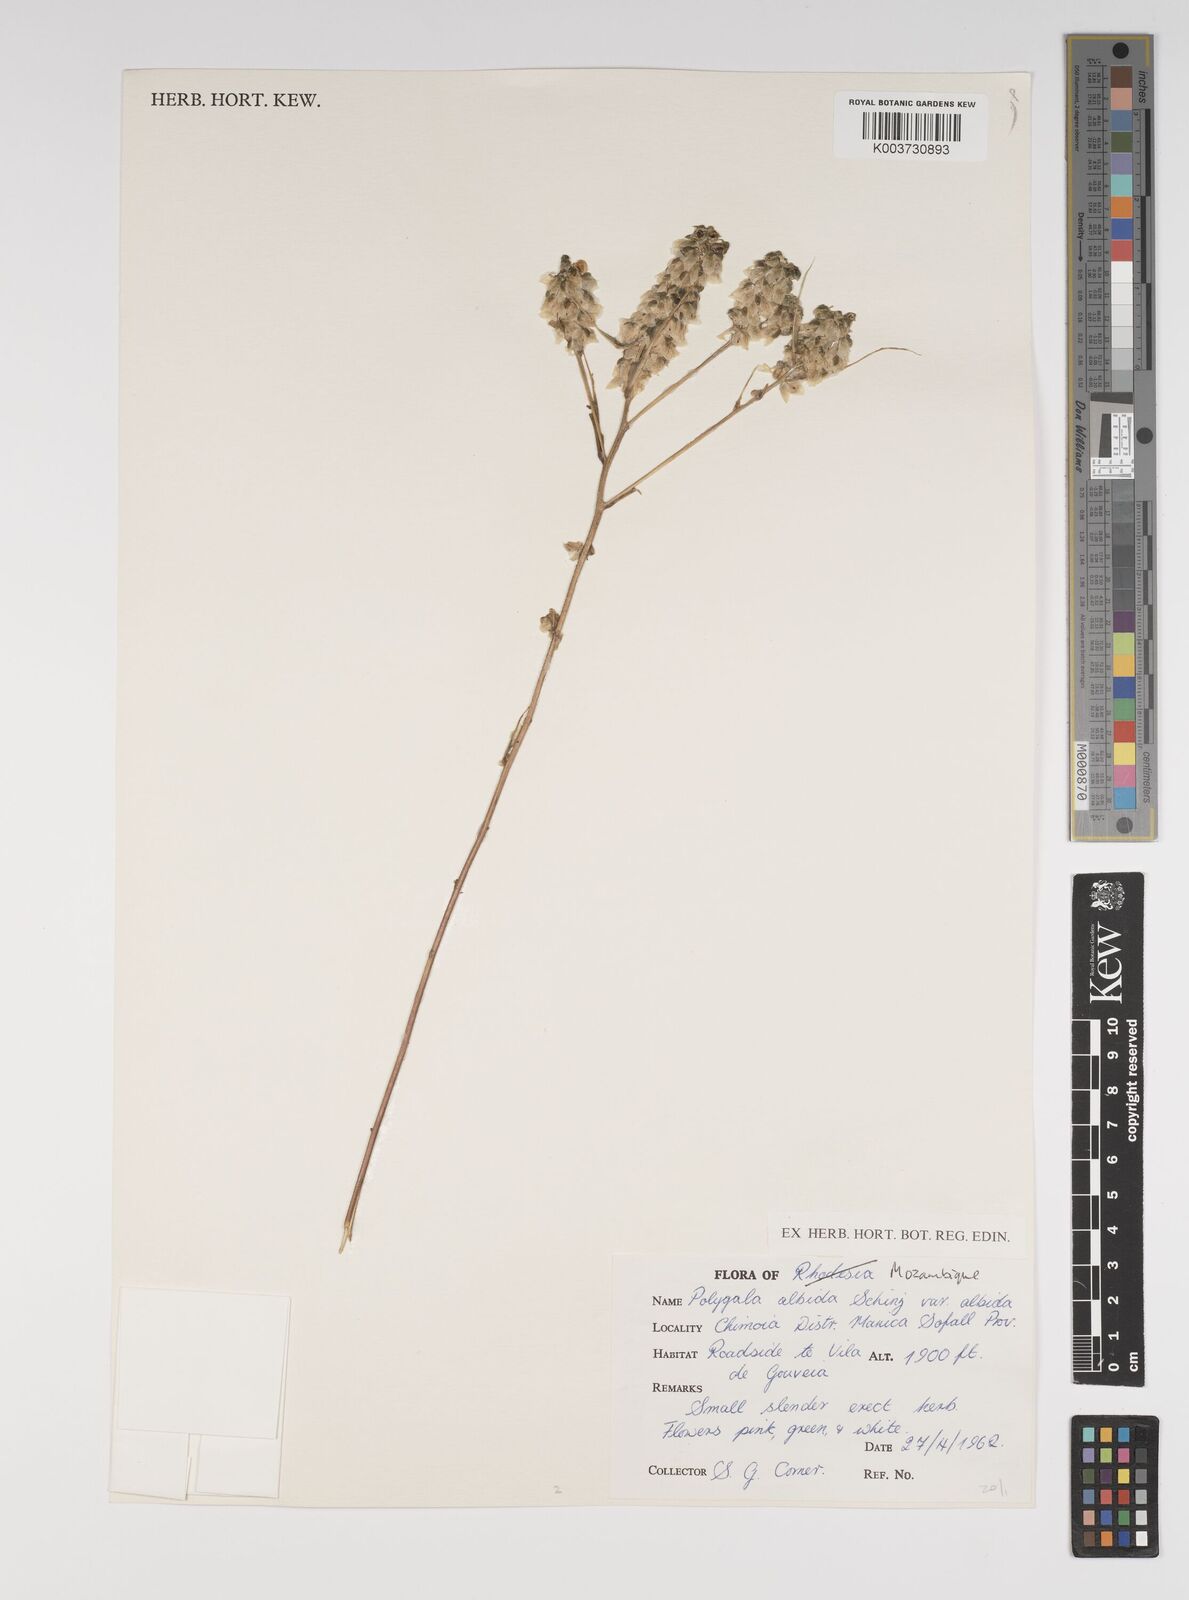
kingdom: Plantae
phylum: Tracheophyta
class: Magnoliopsida
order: Fabales
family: Polygalaceae
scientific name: Polygalaceae
